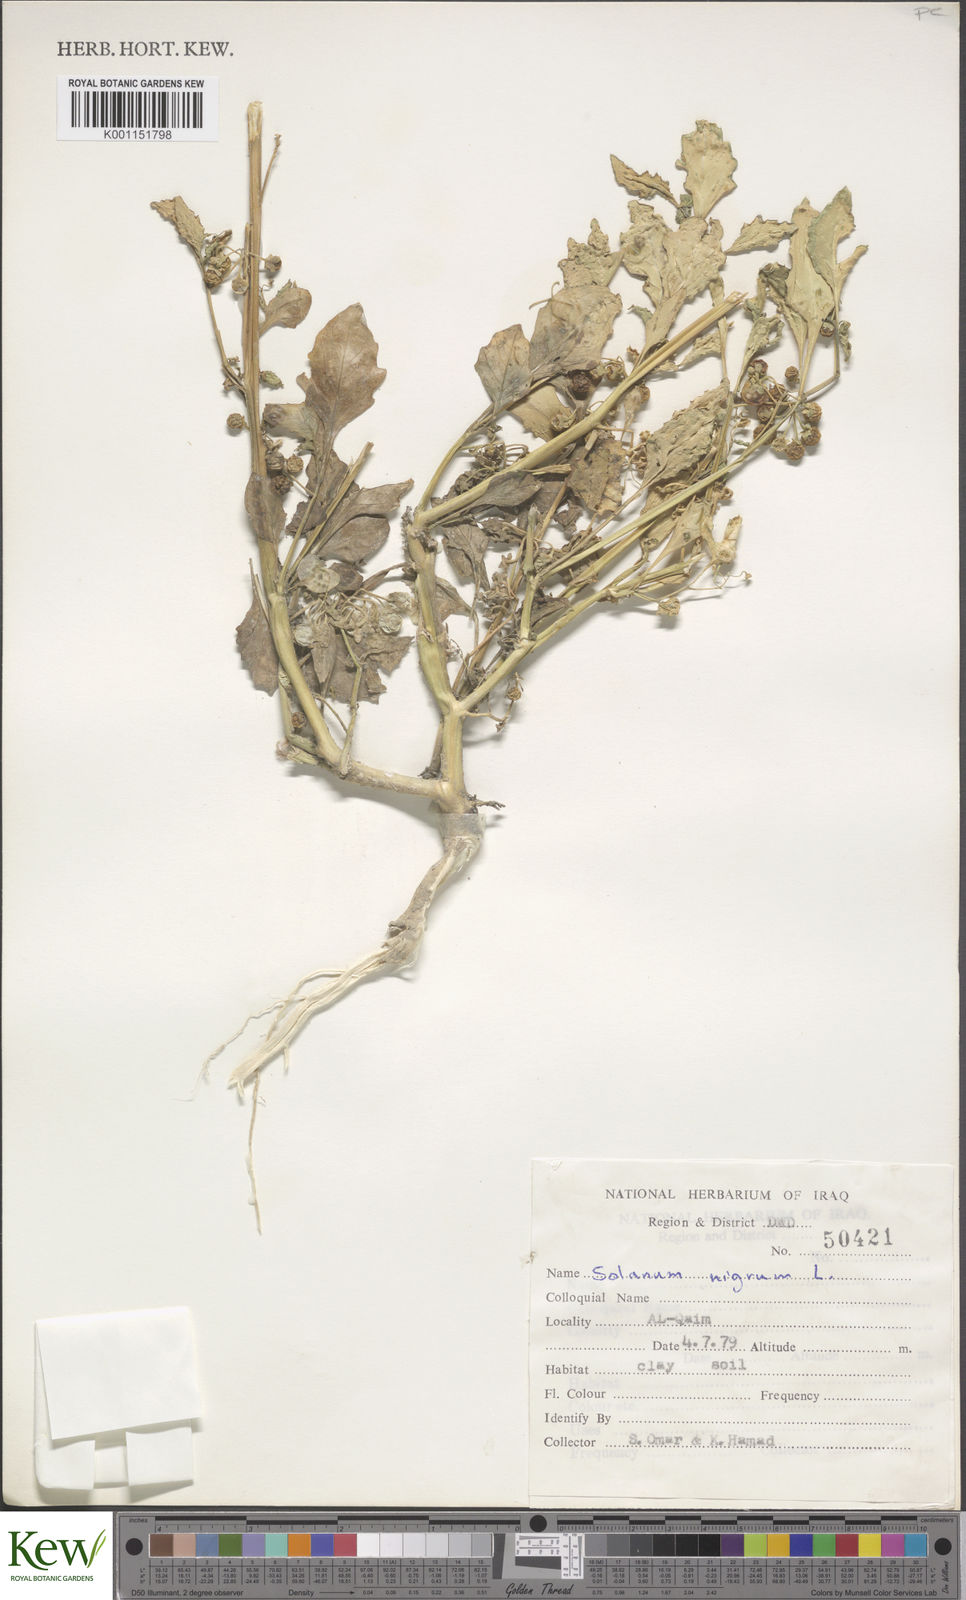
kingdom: Plantae
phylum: Tracheophyta
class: Magnoliopsida
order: Solanales
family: Solanaceae
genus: Solanum
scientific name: Solanum nigrum
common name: Black nightshade
